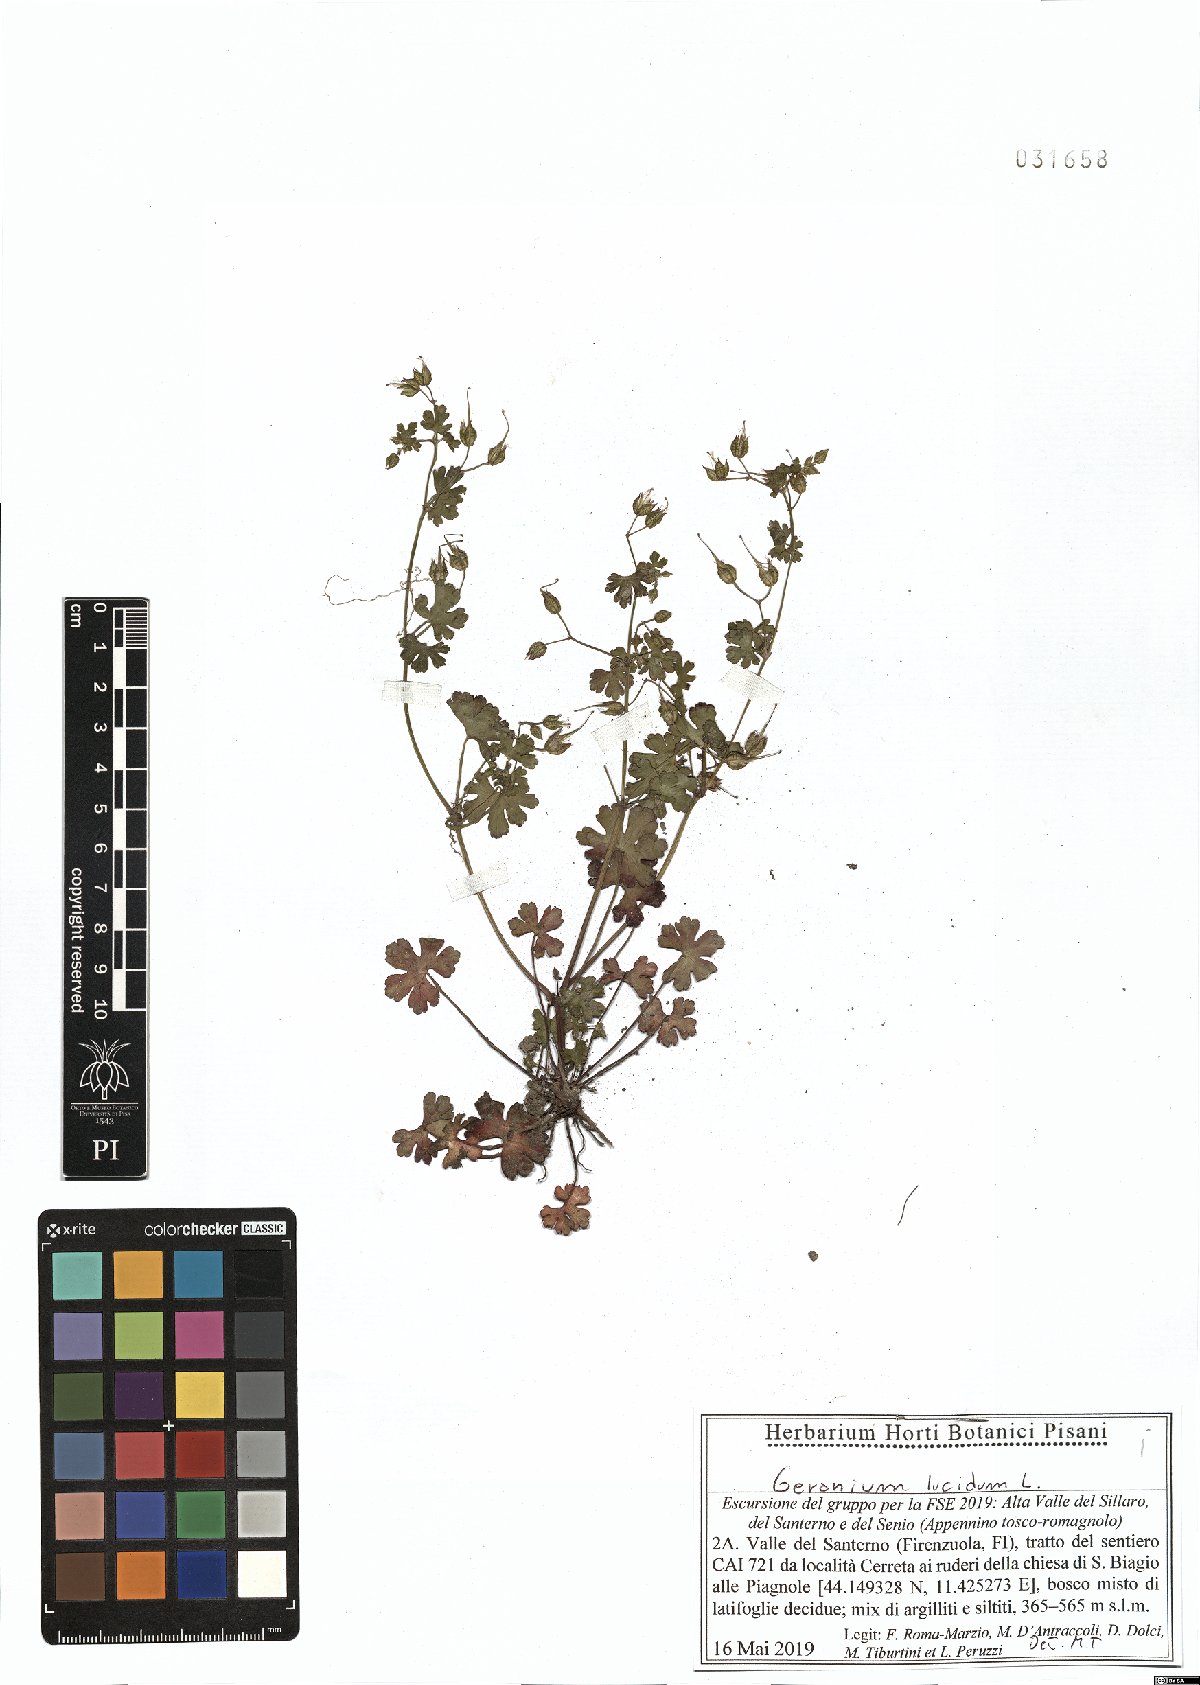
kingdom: Plantae
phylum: Tracheophyta
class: Magnoliopsida
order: Geraniales
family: Geraniaceae
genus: Geranium
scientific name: Geranium lucidum
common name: Shining crane's-bill
